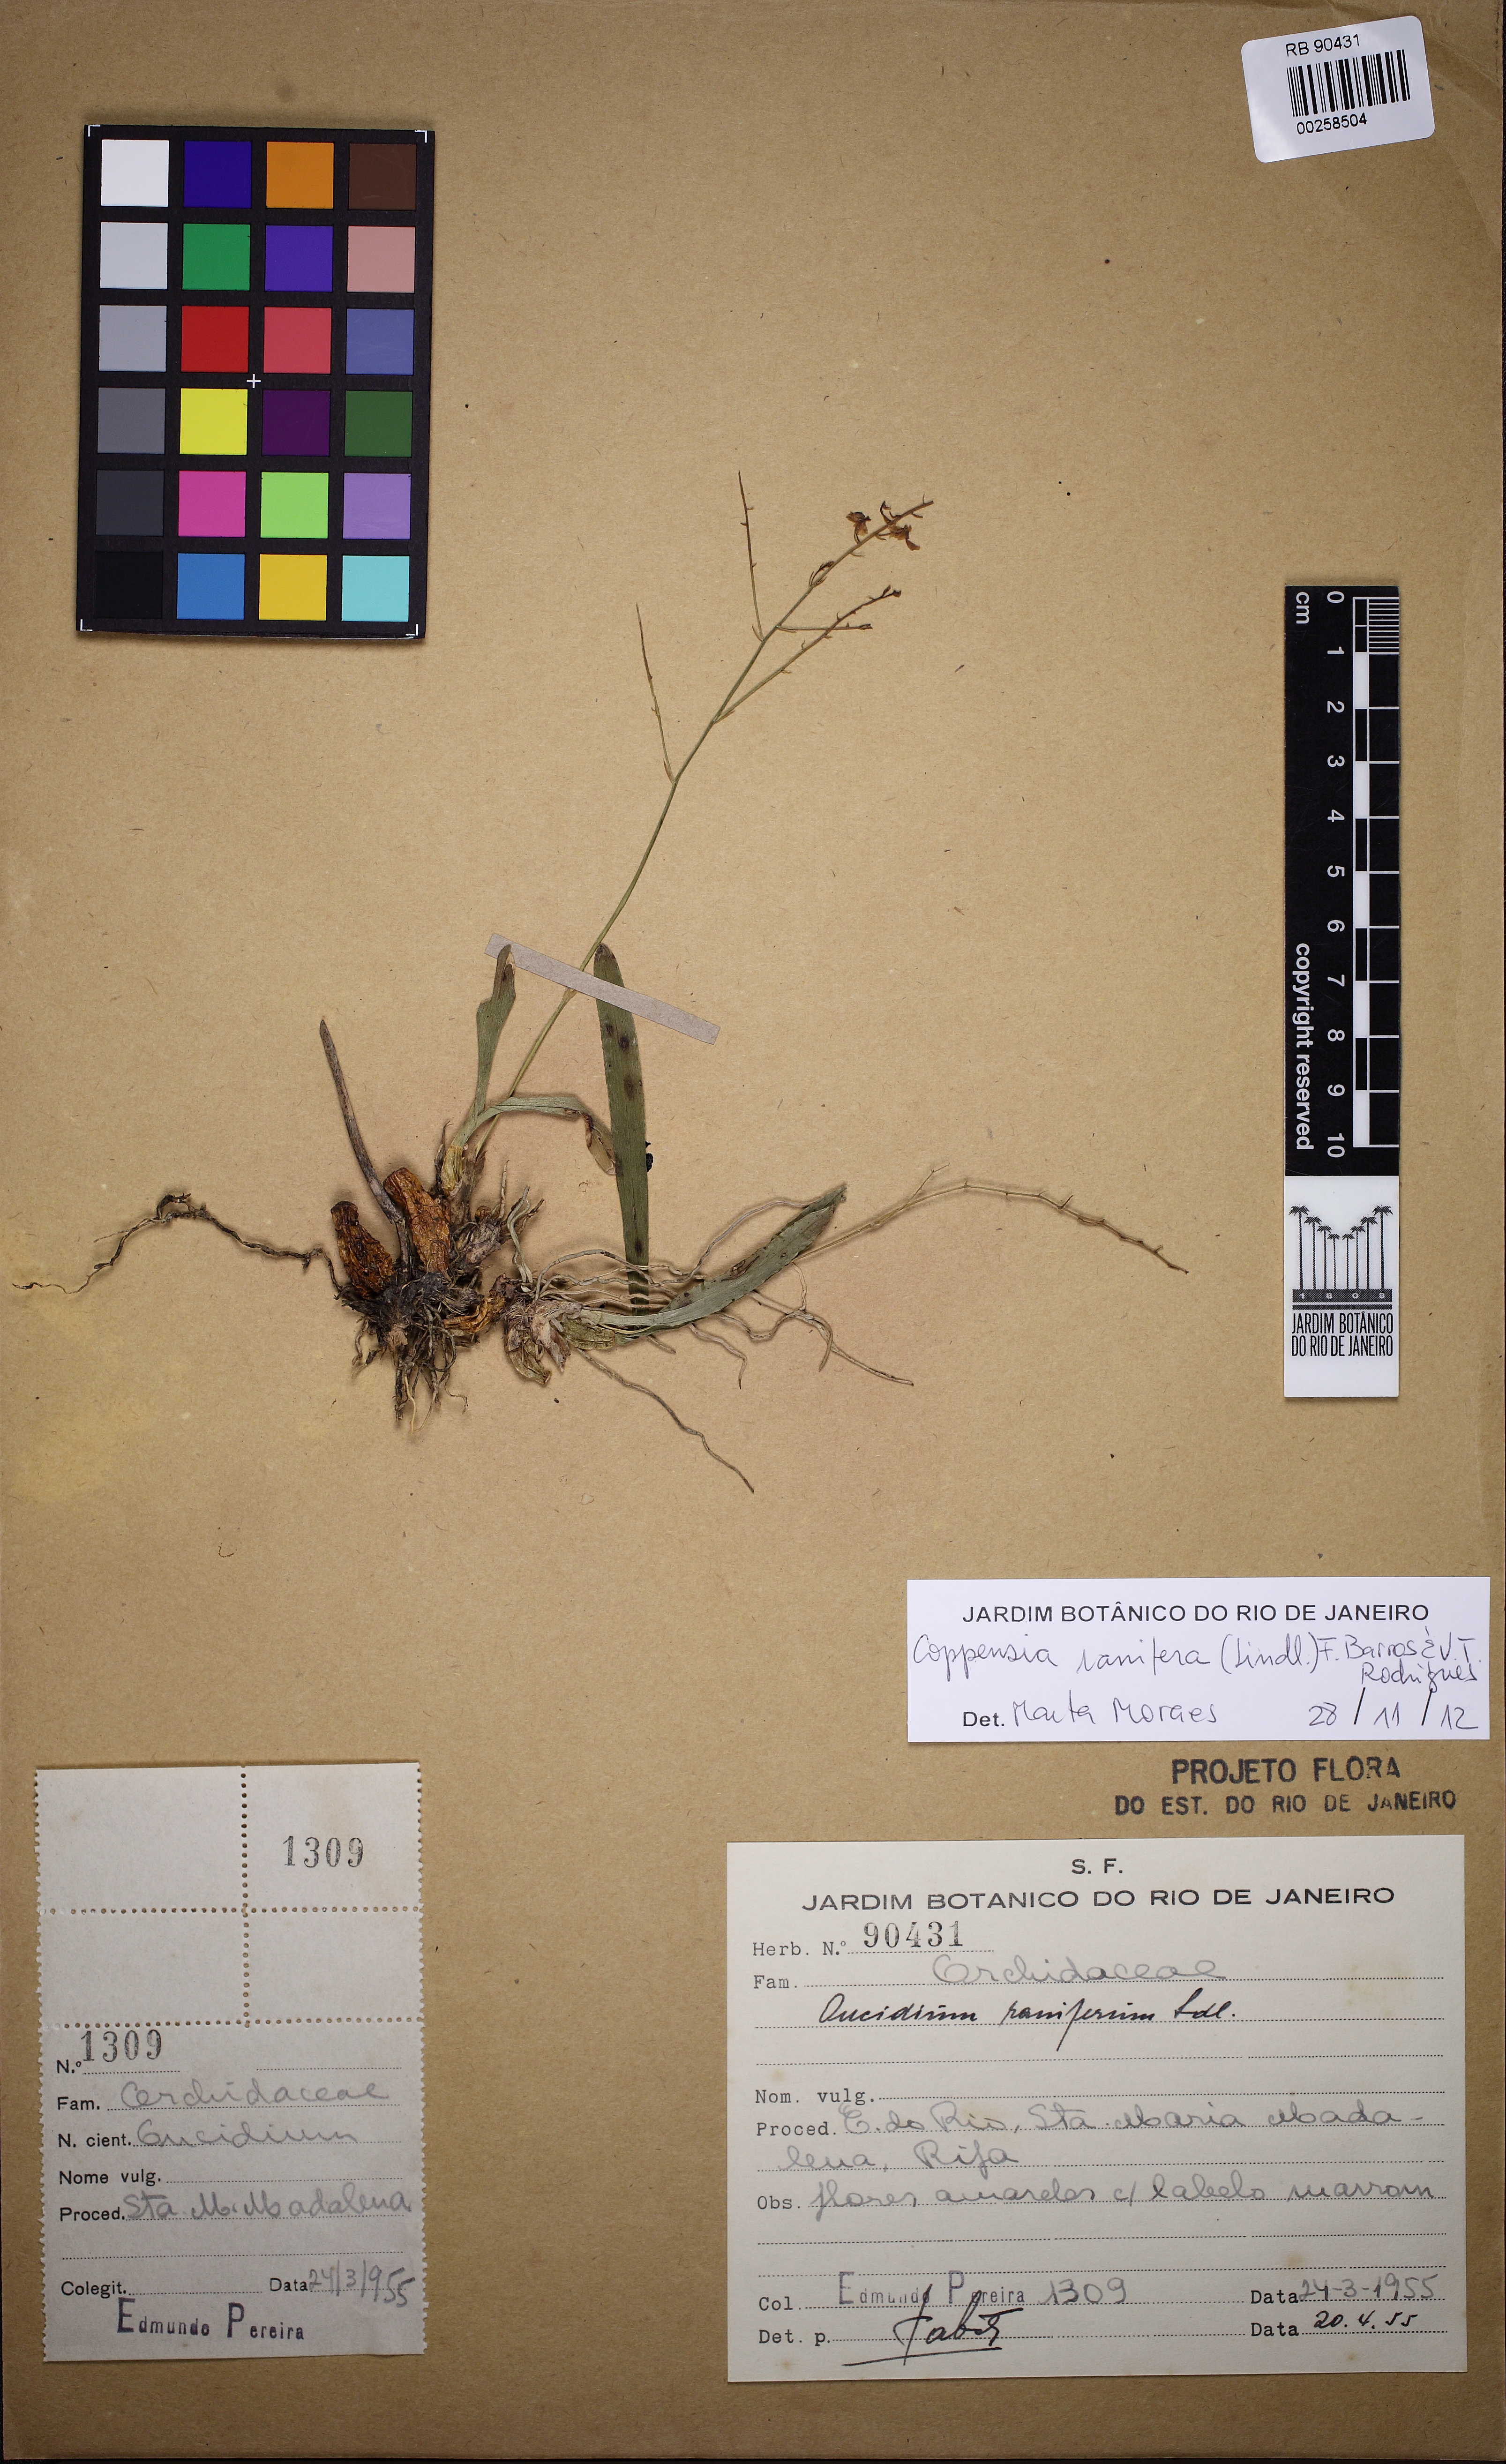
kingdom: Plantae
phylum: Tracheophyta
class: Liliopsida
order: Asparagales
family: Orchidaceae
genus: Gomesa
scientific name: Gomesa ranifera
